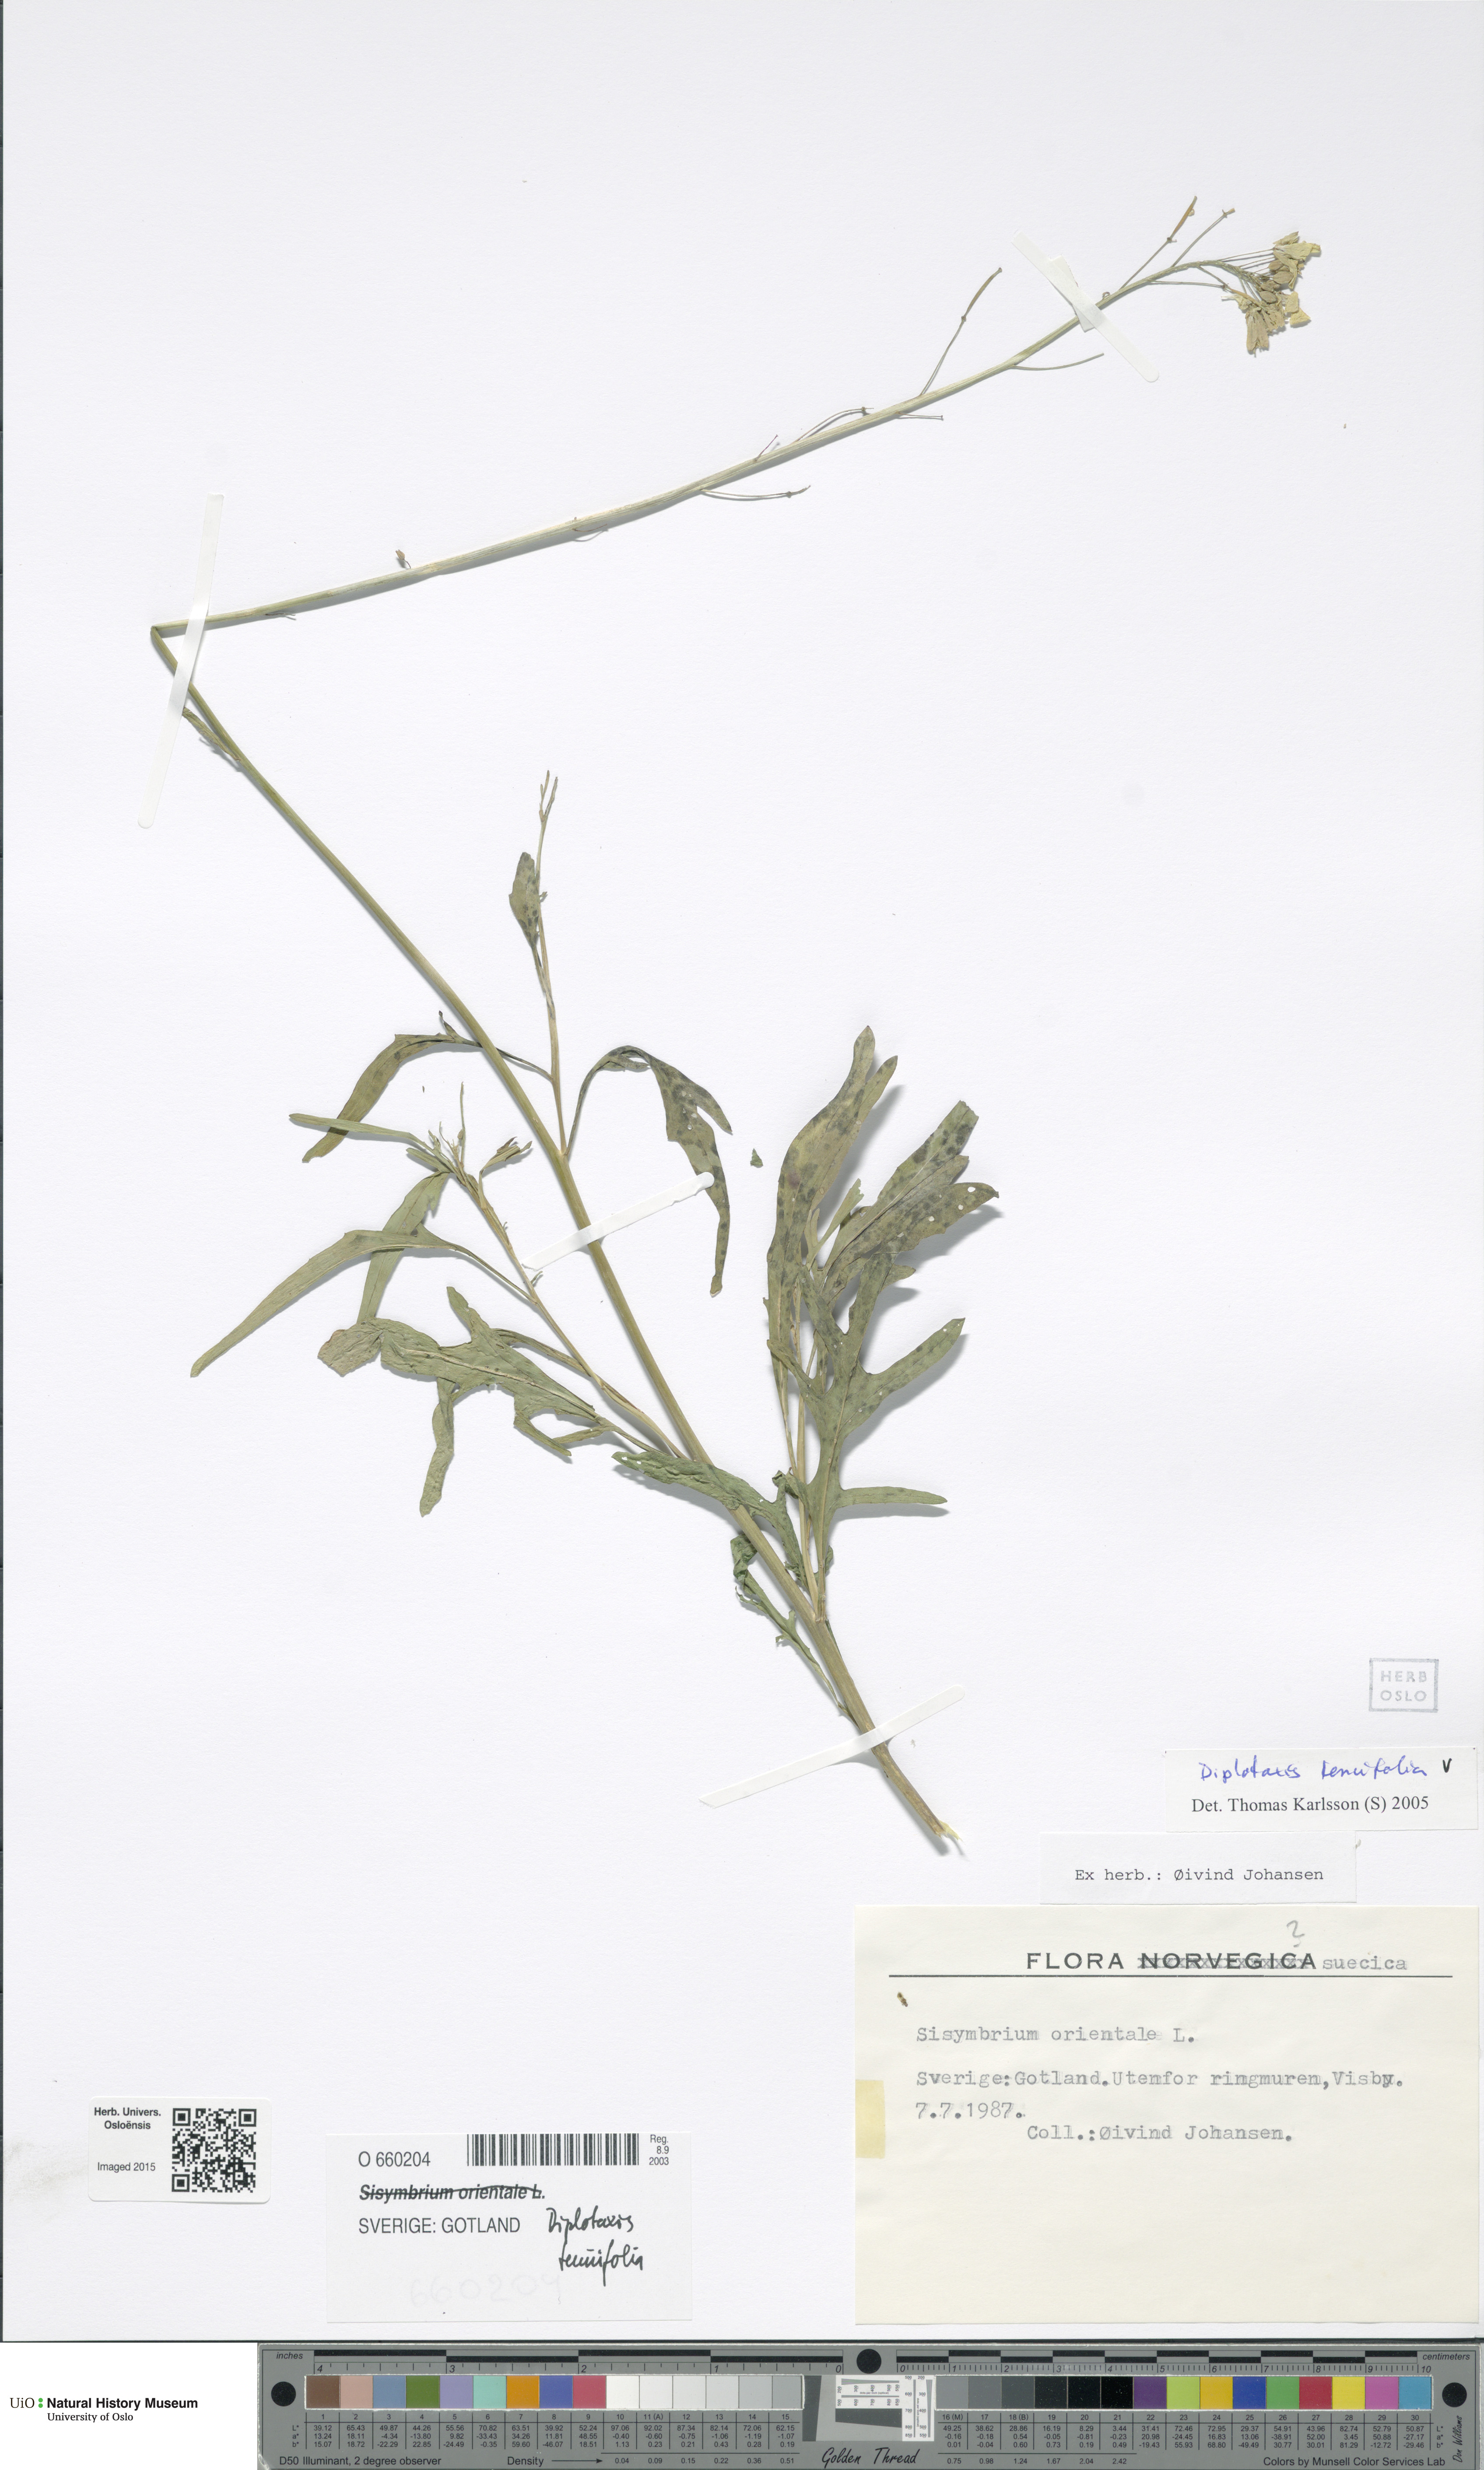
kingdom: Plantae
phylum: Tracheophyta
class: Magnoliopsida
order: Brassicales
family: Brassicaceae
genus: Diplotaxis
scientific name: Diplotaxis tenuifolia
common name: Perennial wall-rocket
